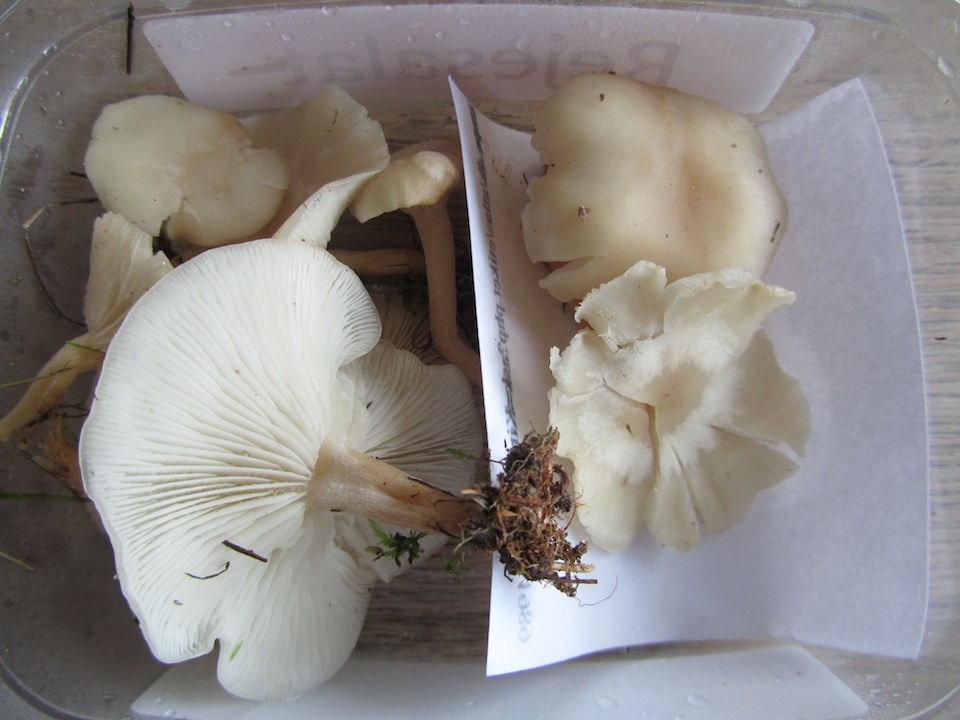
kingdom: Fungi
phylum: Basidiomycota
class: Agaricomycetes
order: Agaricales
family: Tricholomataceae
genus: Clitocybe
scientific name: Clitocybe agrestis
